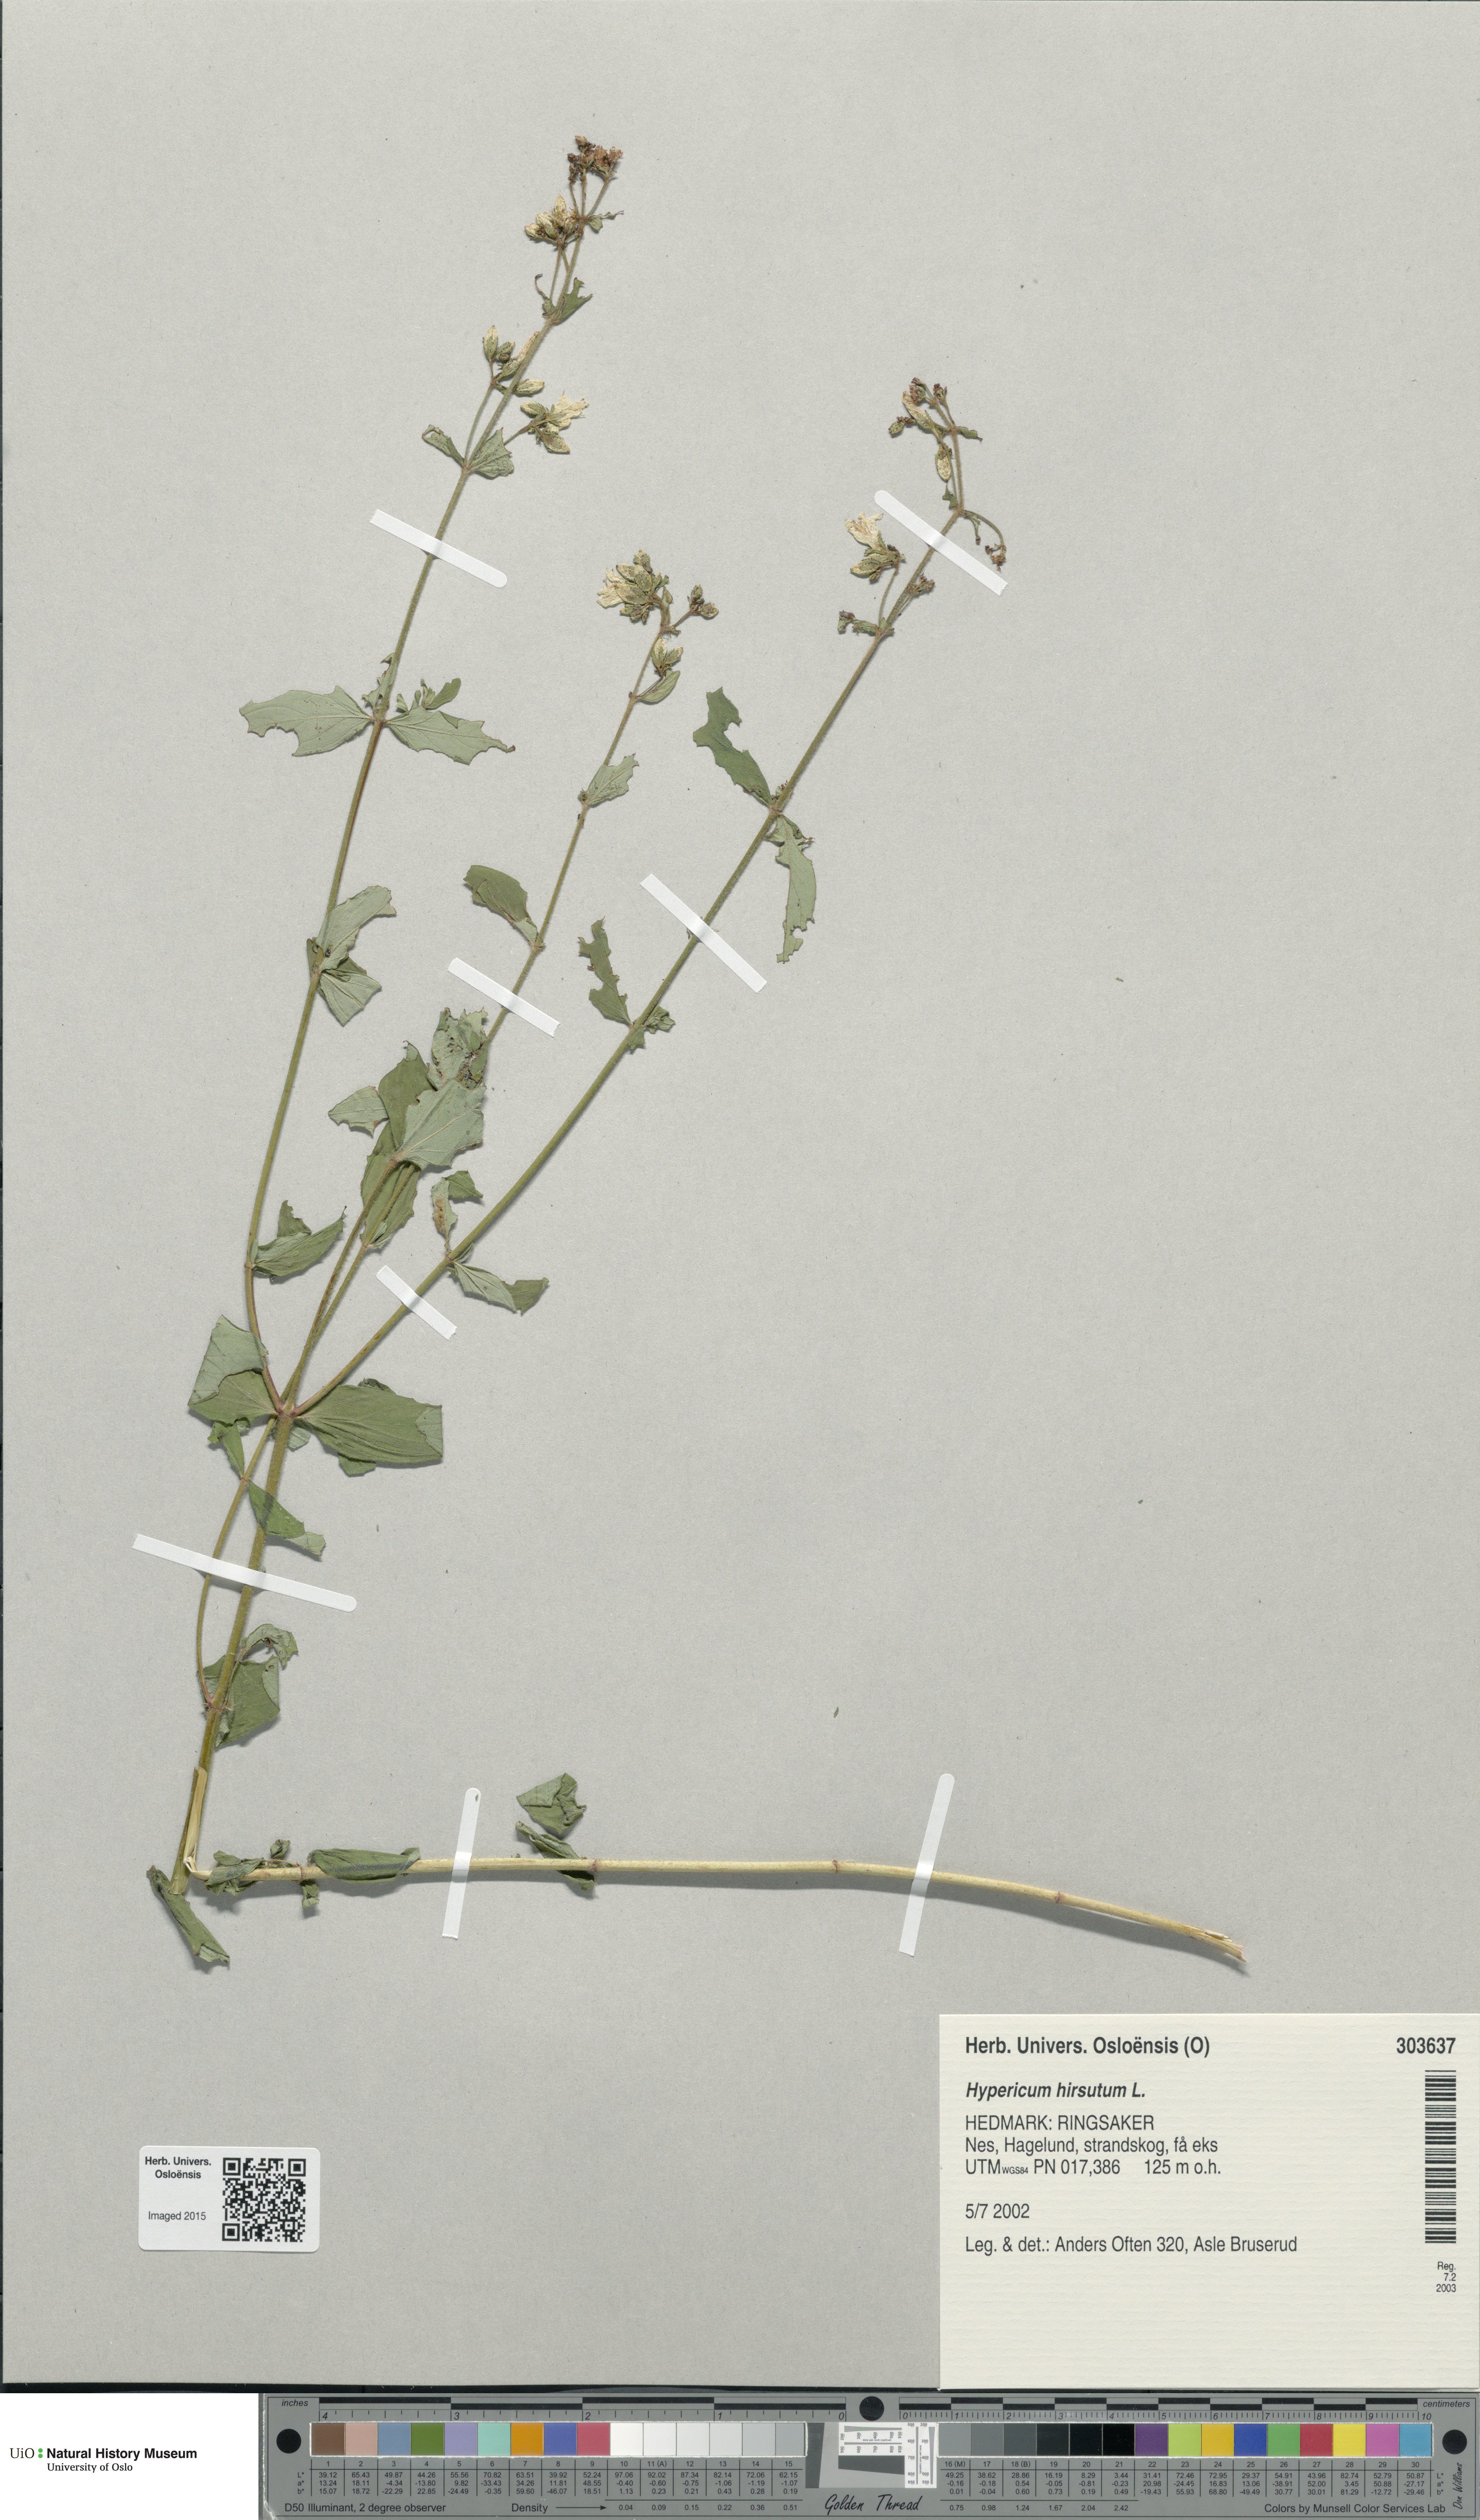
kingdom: Plantae
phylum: Tracheophyta
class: Magnoliopsida
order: Malpighiales
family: Hypericaceae
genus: Hypericum
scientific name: Hypericum hirsutum
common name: Hairy st. john's-wort
